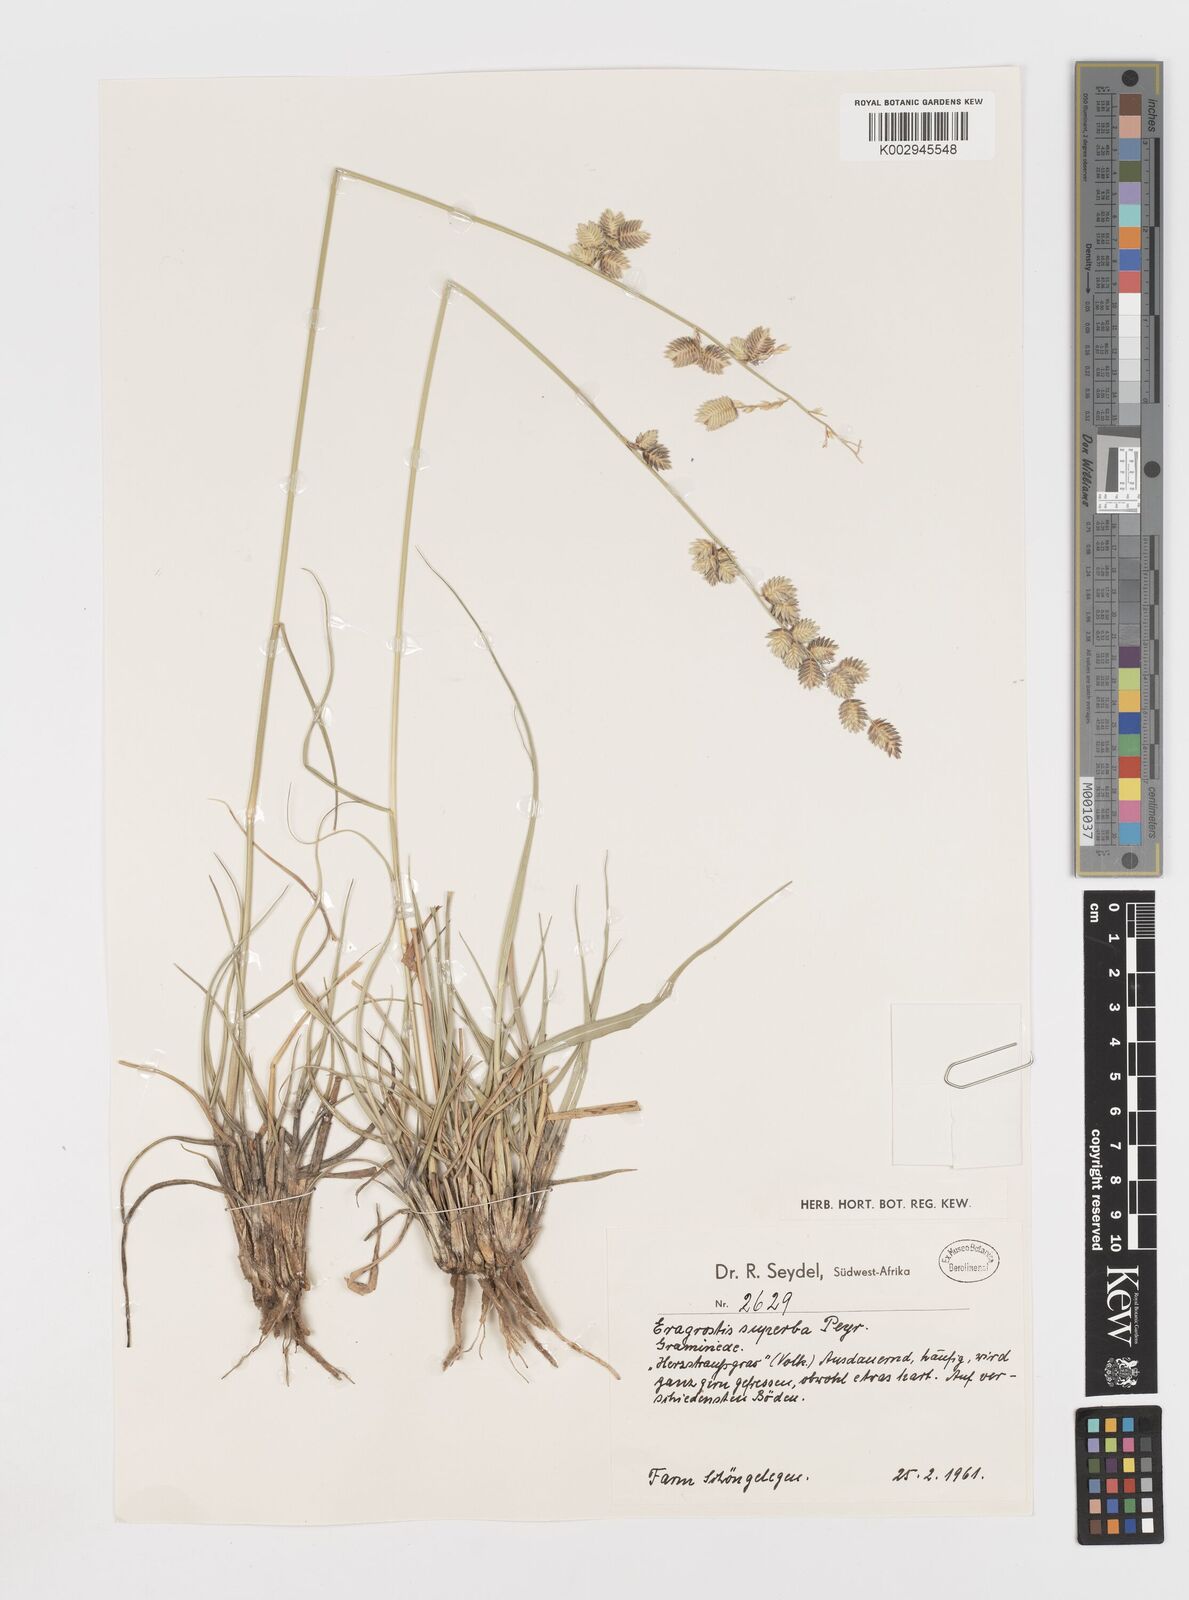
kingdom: Plantae
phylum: Tracheophyta
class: Liliopsida
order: Poales
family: Poaceae
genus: Eragrostis
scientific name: Eragrostis superba
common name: Wilman lovegrass
